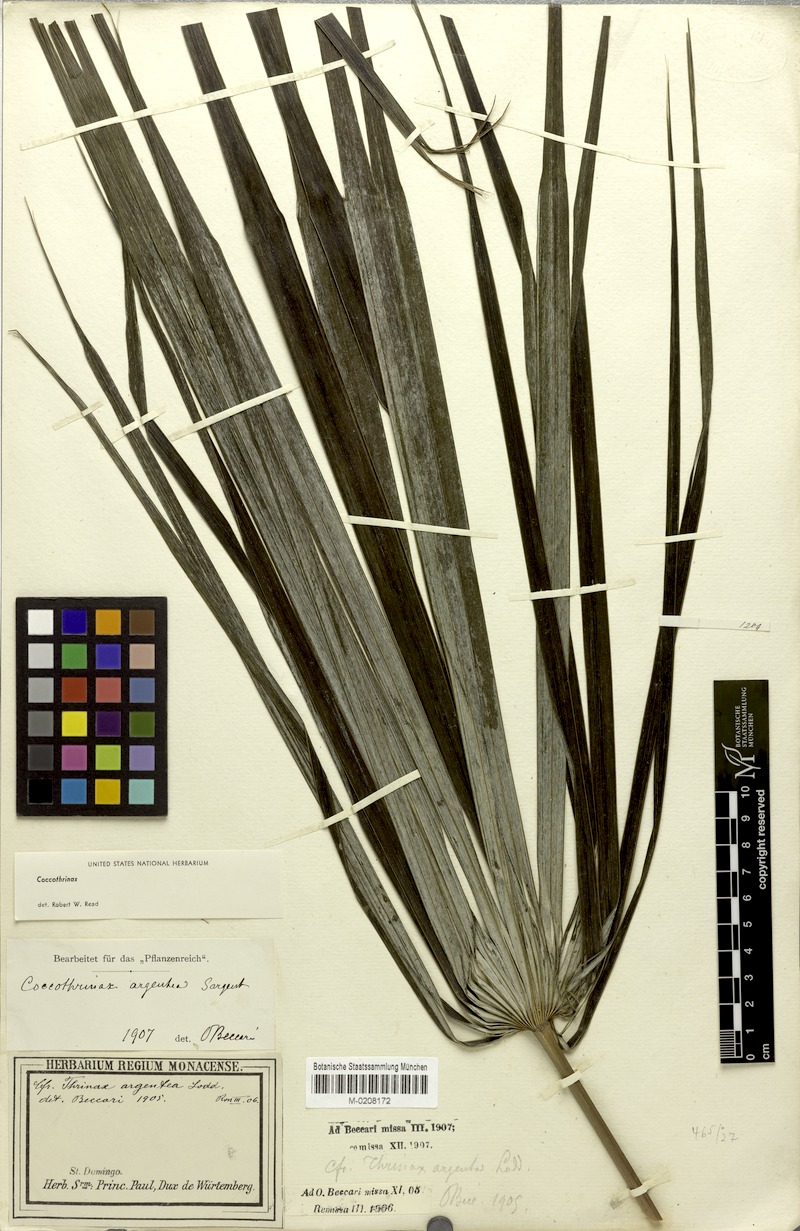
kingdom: Plantae
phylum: Tracheophyta
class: Liliopsida
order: Arecales
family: Arecaceae
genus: Coccothrinax
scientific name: Coccothrinax argentea
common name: Broom palm
